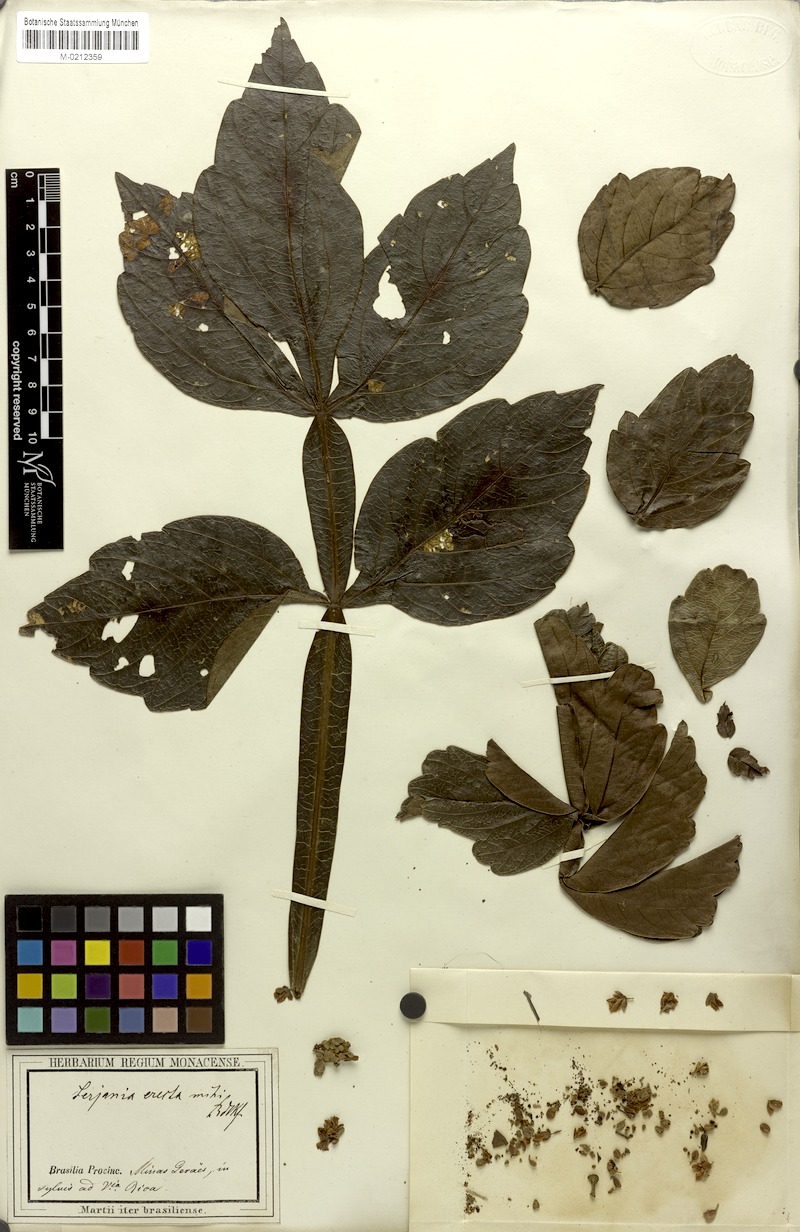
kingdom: Plantae
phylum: Tracheophyta
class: Magnoliopsida
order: Sapindales
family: Sapindaceae
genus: Serjania
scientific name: Serjania erecta
